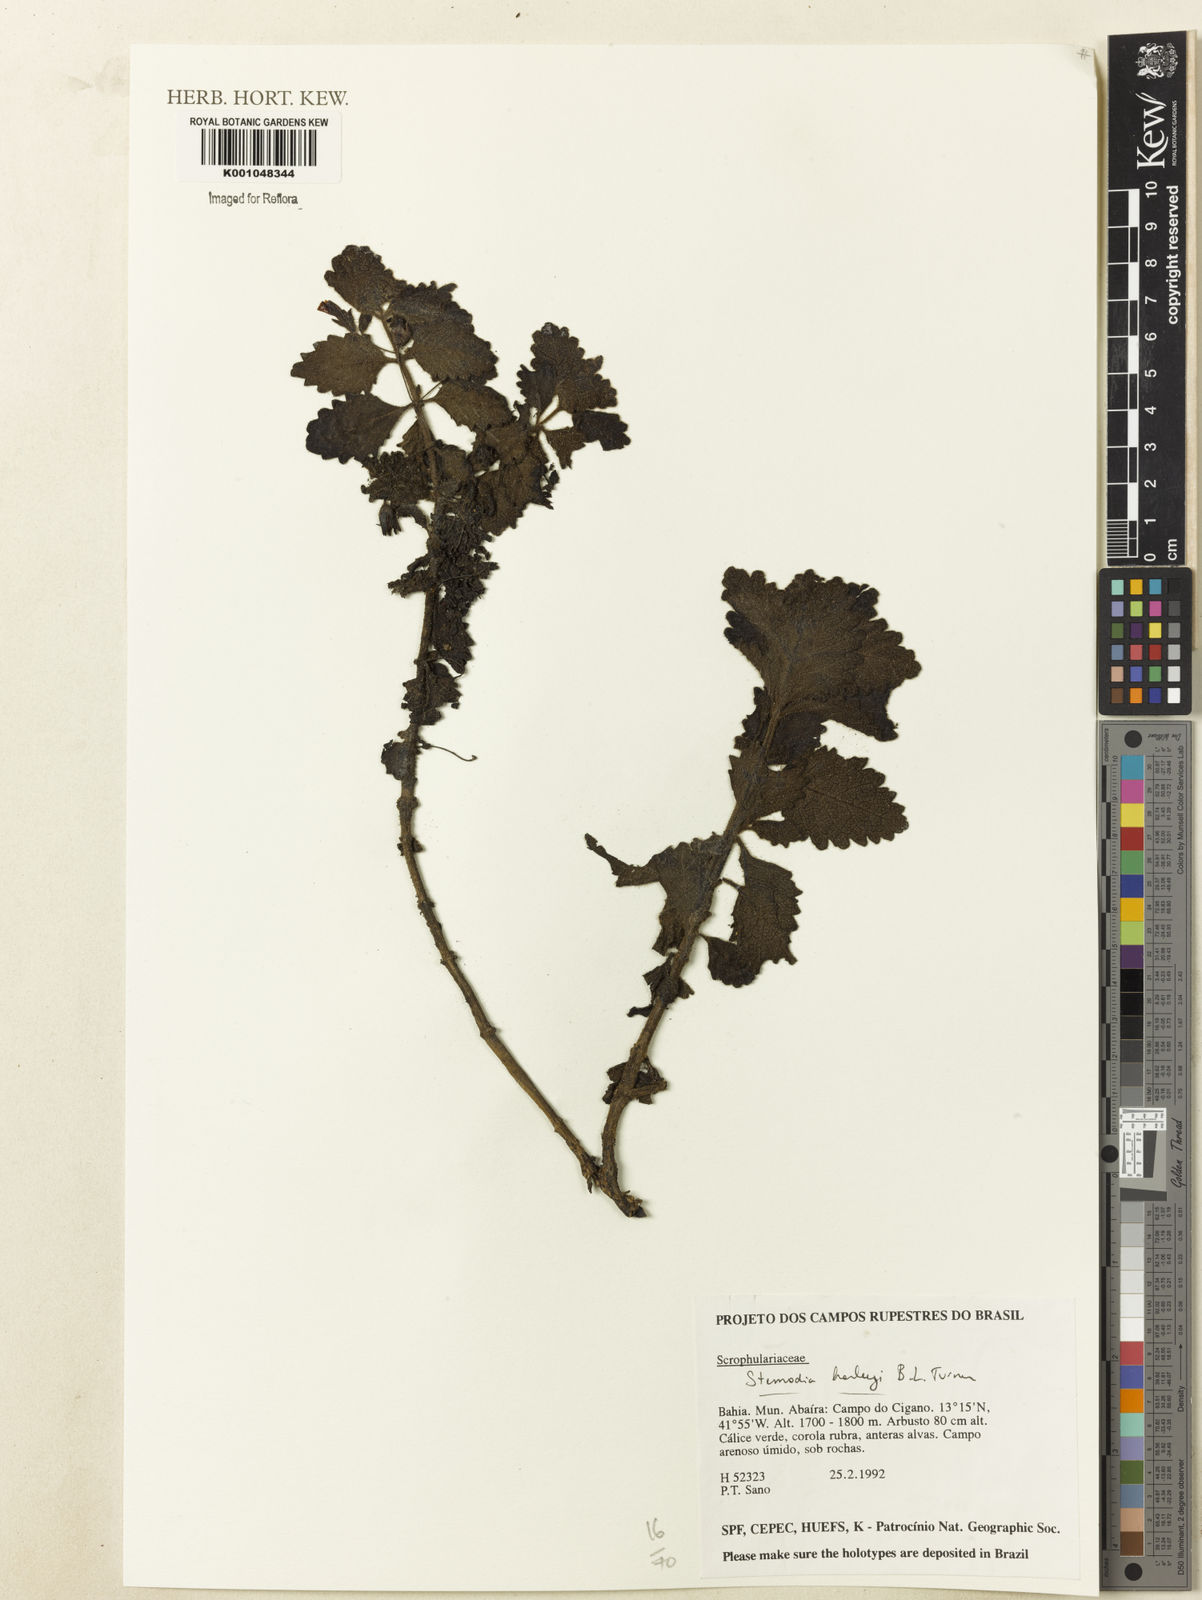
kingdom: Plantae
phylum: Tracheophyta
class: Magnoliopsida
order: Lamiales
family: Plantaginaceae
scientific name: Plantaginaceae
